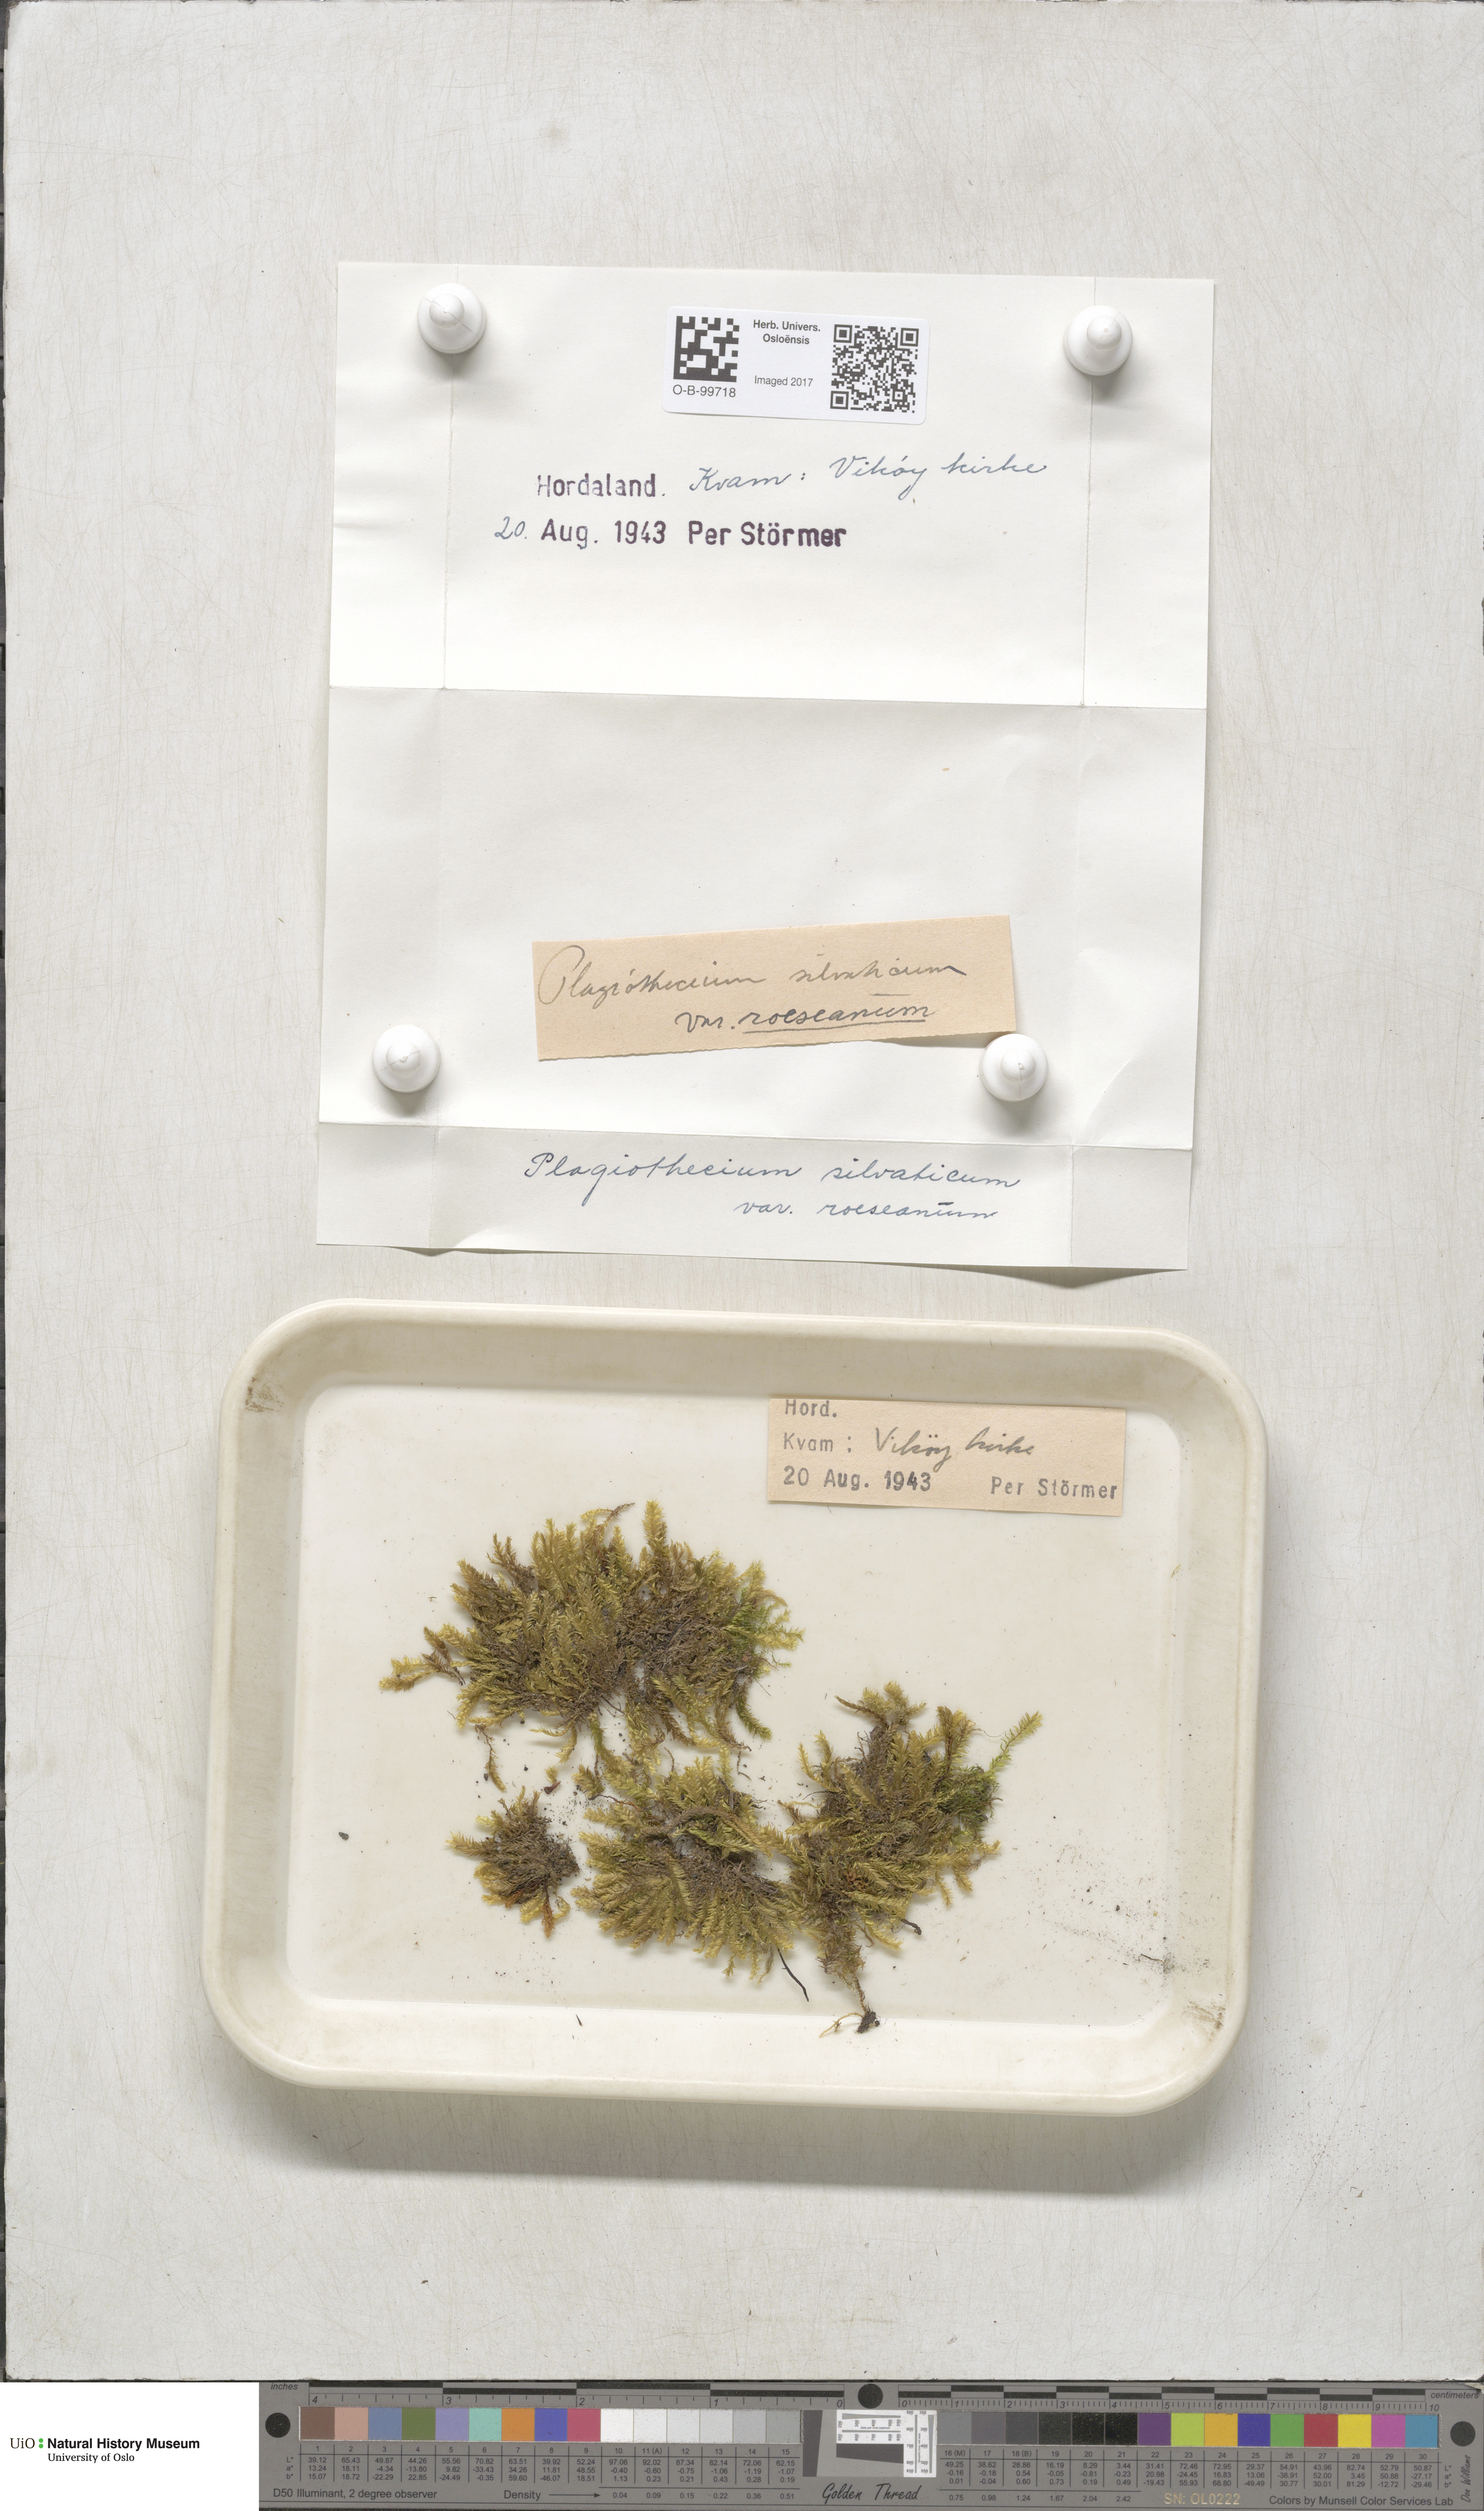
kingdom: Plantae
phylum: Bryophyta
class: Bryopsida
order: Bartramiales
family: Bartramiaceae
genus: Plagiopus
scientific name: Plagiopus oederianus
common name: Oeder's apple moss
